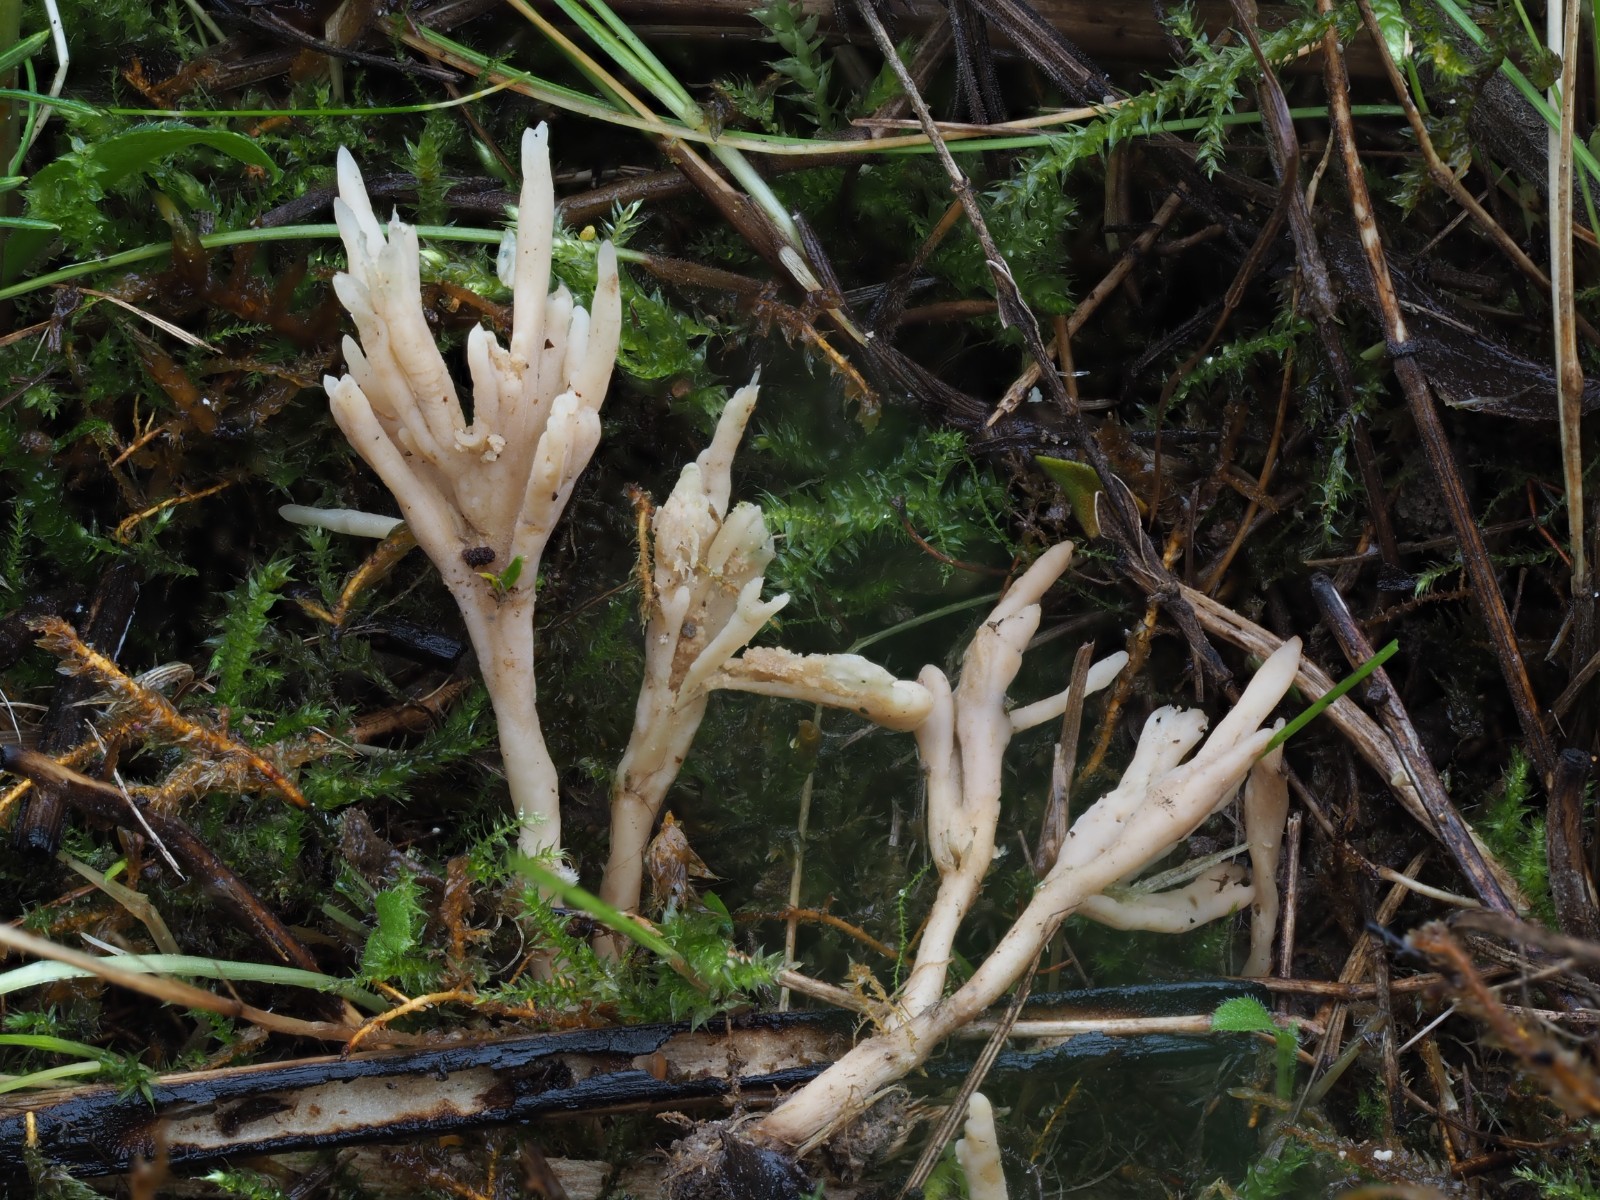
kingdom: Fungi
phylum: Basidiomycota
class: Agaricomycetes
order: Tremellodendropsidales
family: Tremellodendropsidaceae
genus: Tremellodendropsis
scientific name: Tremellodendropsis tuberosa
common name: bævrekølle
